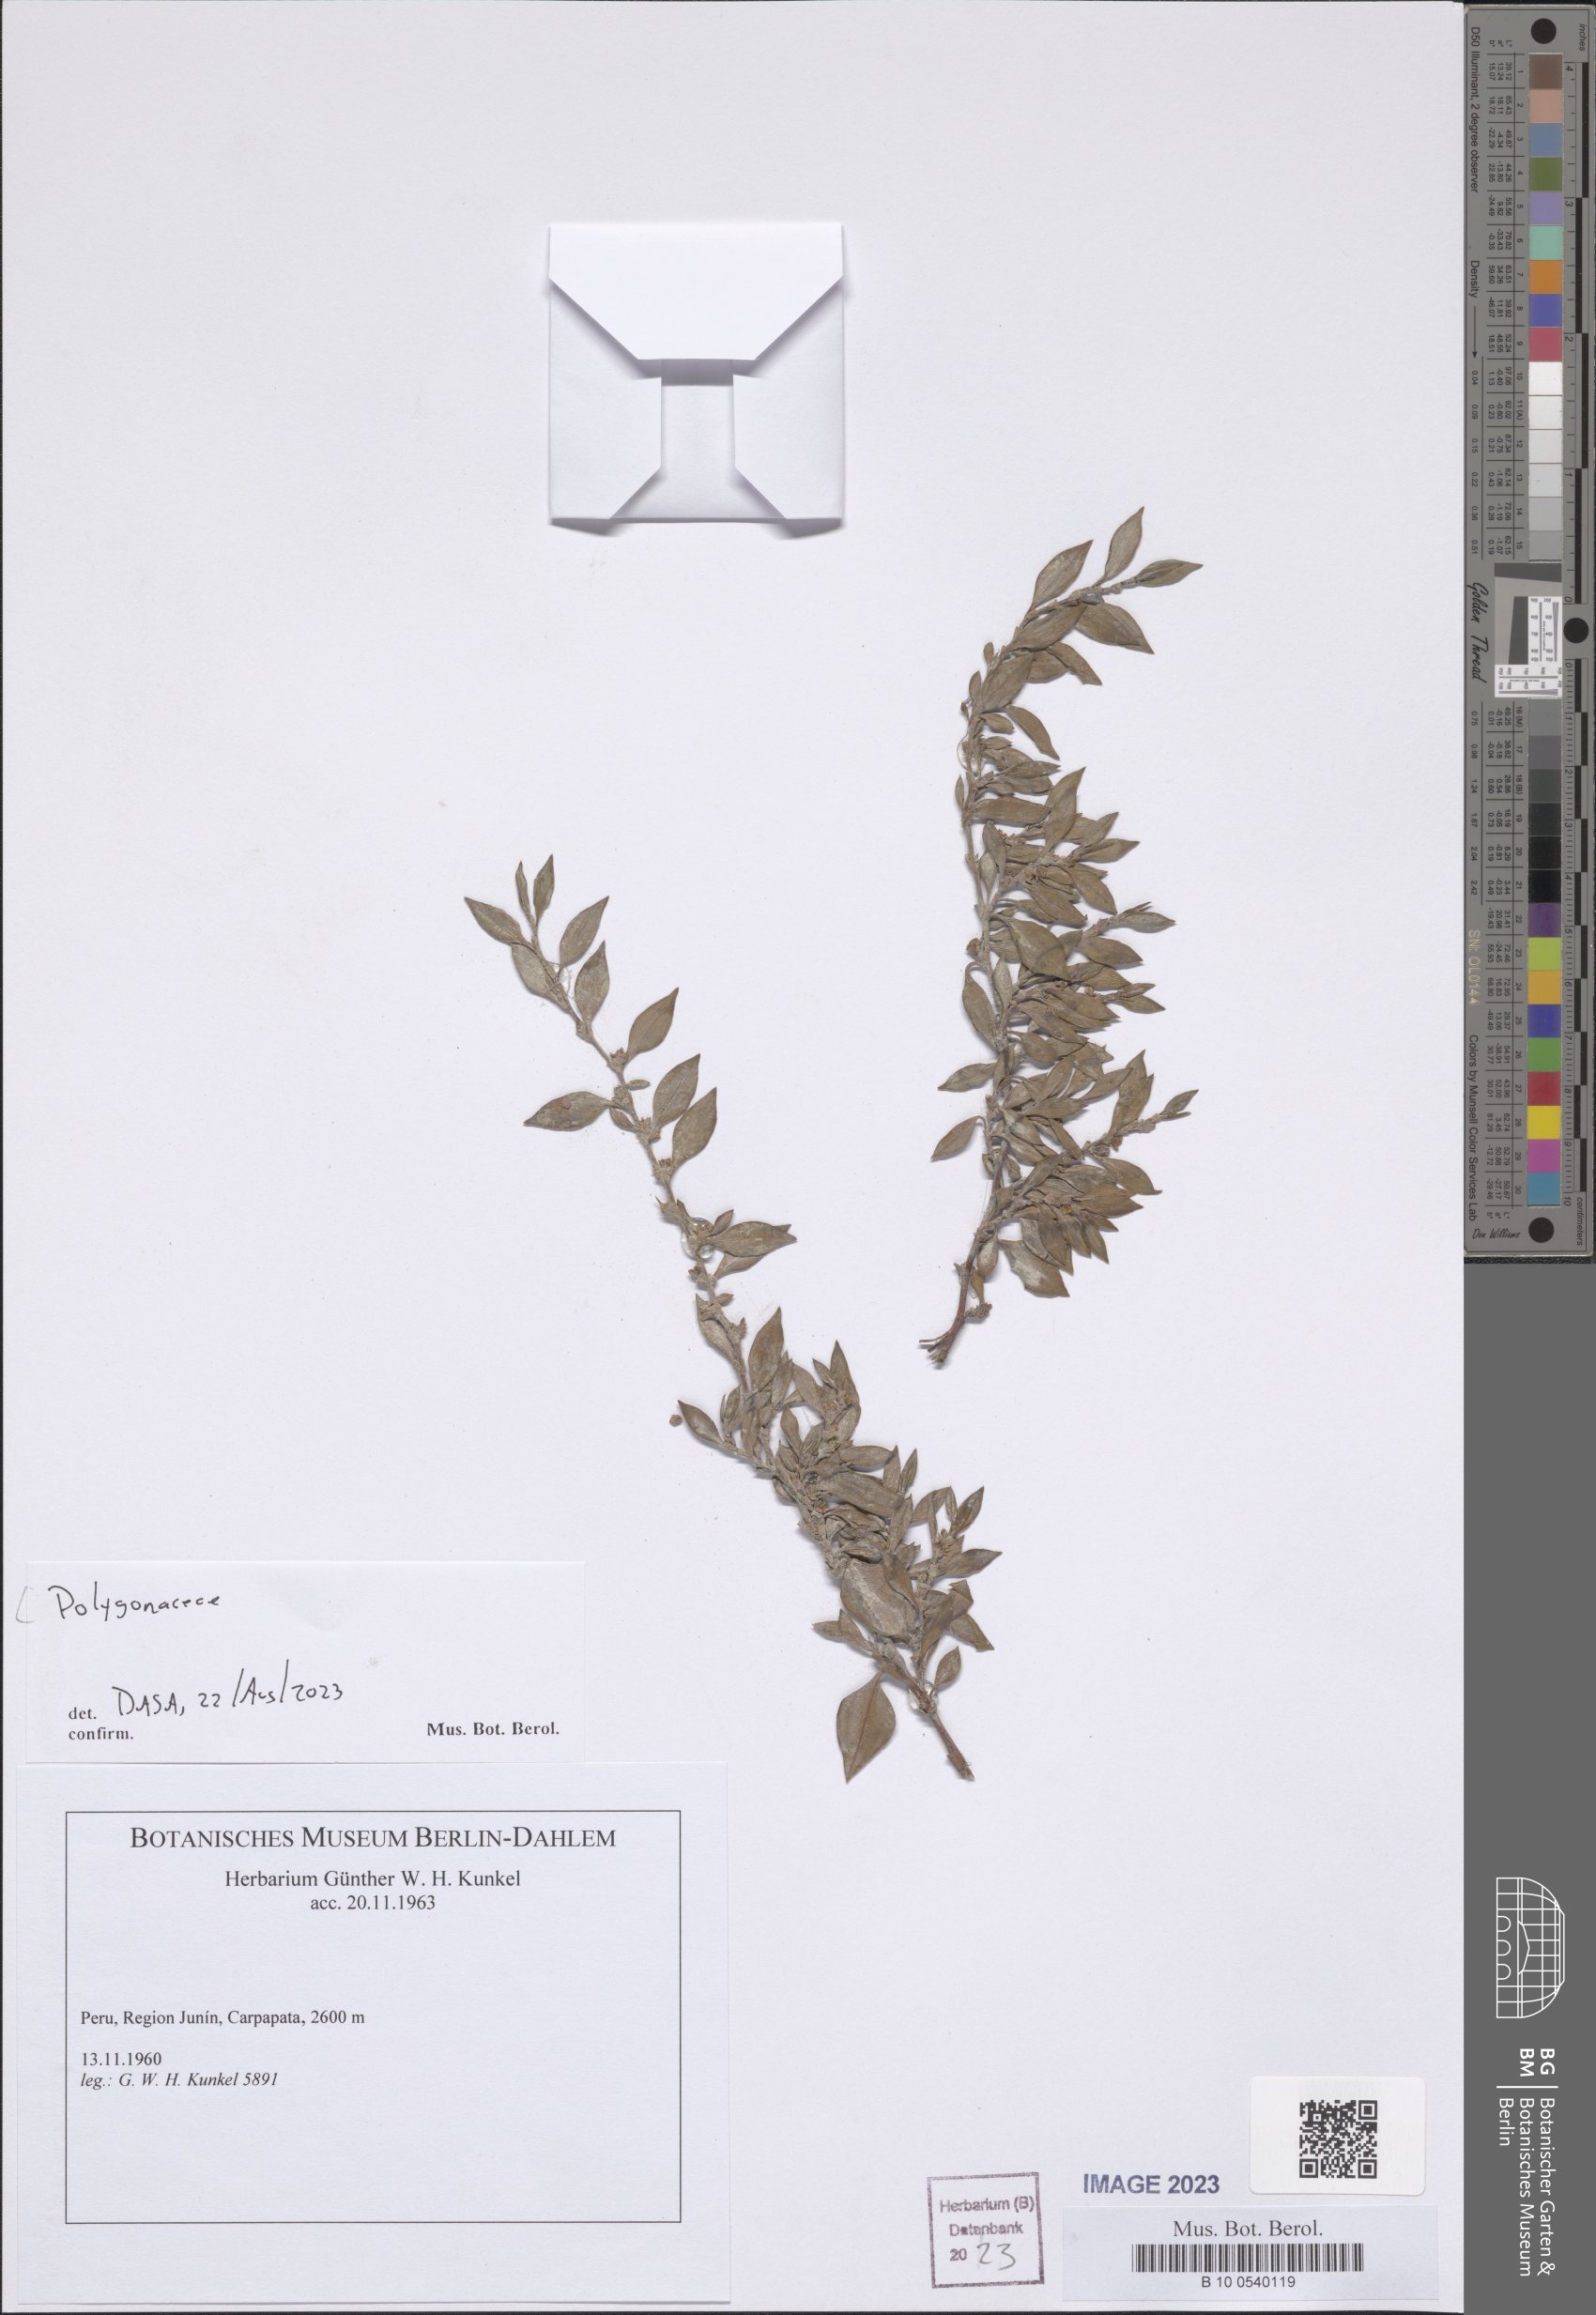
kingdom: Plantae
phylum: Tracheophyta
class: Magnoliopsida
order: Caryophyllales
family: Polygonaceae
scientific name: Polygonaceae
